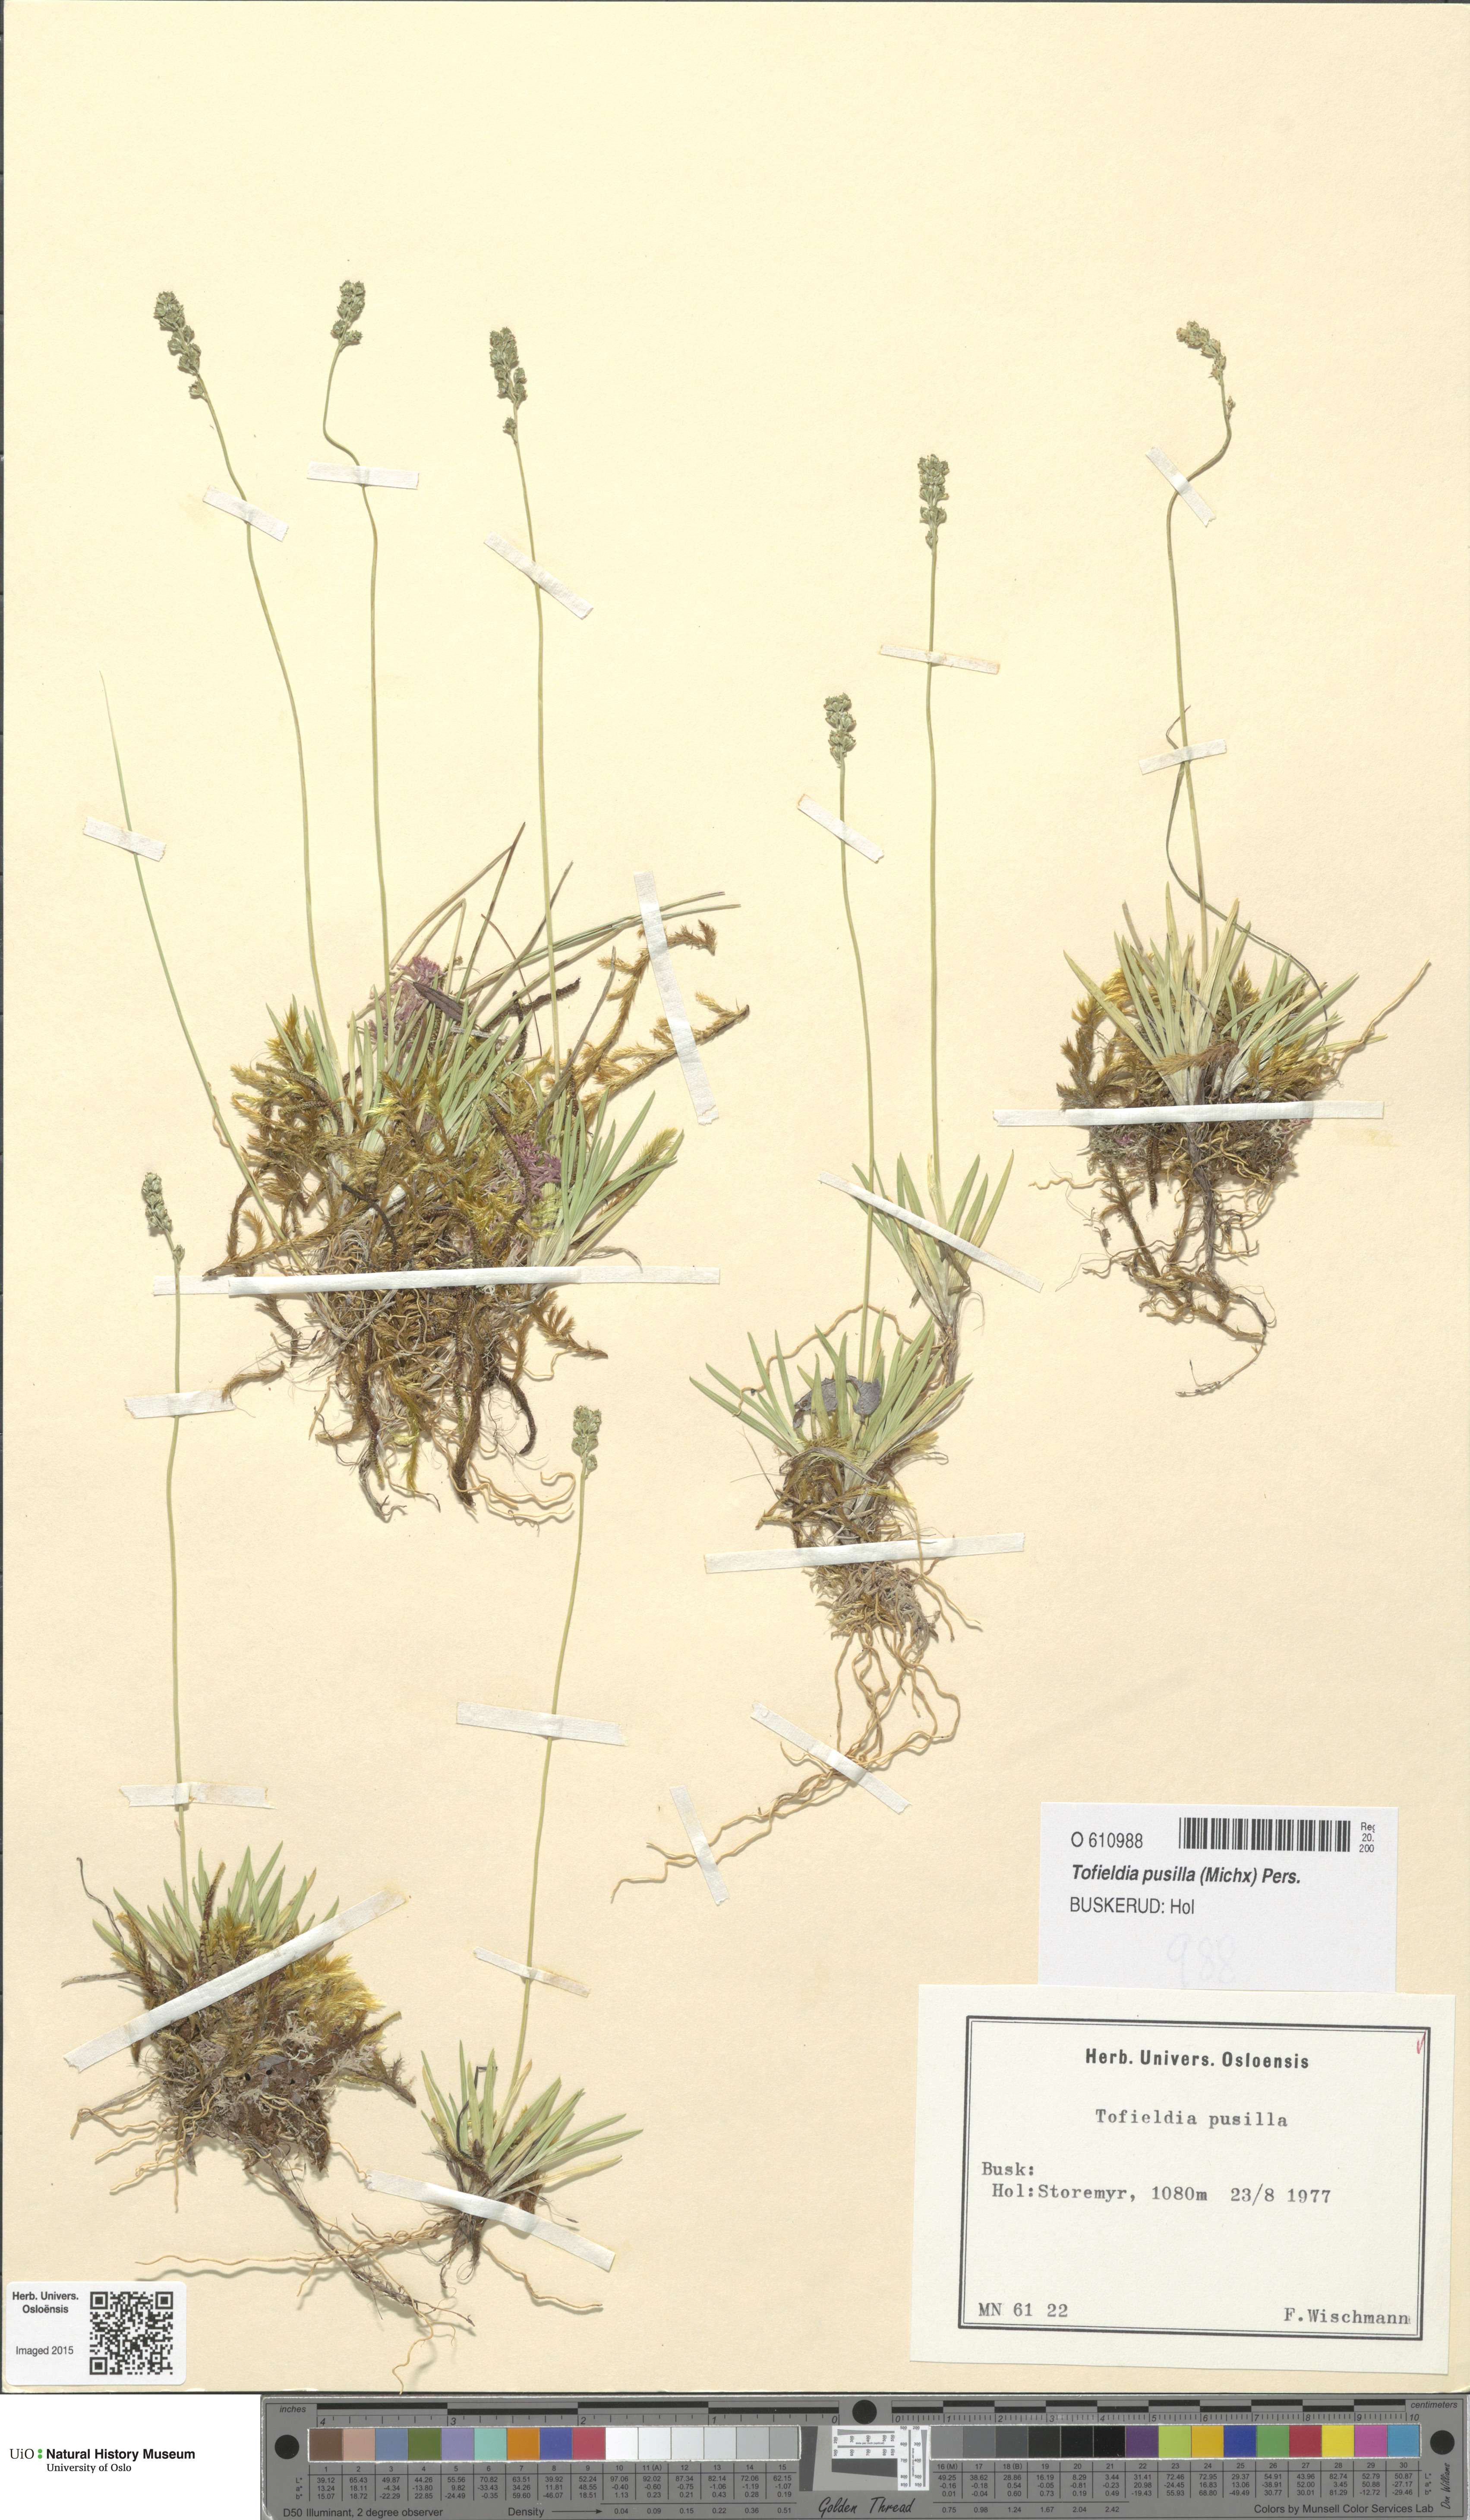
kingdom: Plantae
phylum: Tracheophyta
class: Liliopsida
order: Alismatales
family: Tofieldiaceae
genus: Tofieldia
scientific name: Tofieldia pusilla
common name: Scottish false asphodel
